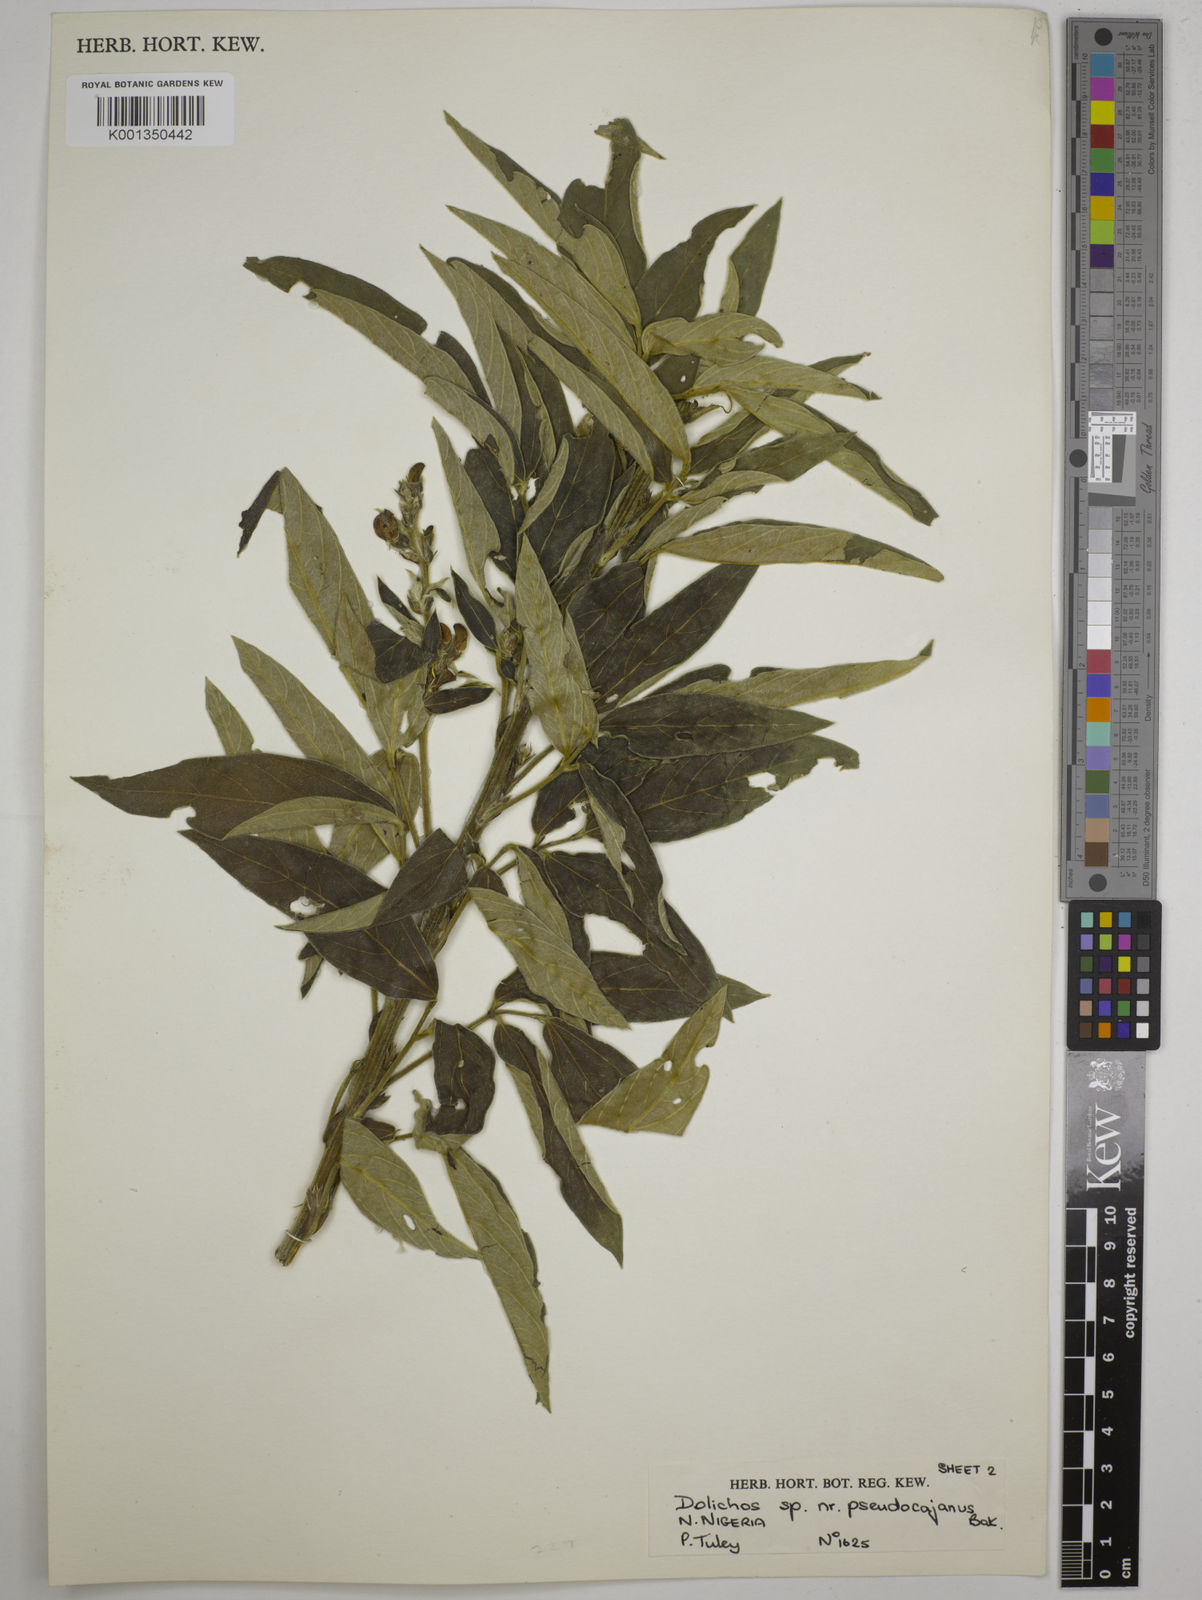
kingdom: Plantae
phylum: Tracheophyta
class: Magnoliopsida
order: Fabales
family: Fabaceae
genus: Dolichos
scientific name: Dolichos pseudocajanus
